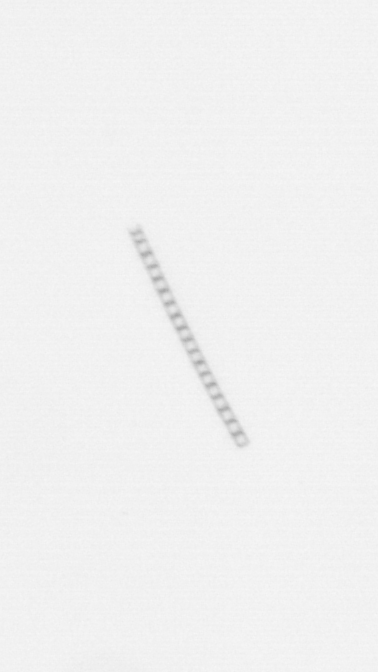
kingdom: Chromista
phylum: Ochrophyta
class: Bacillariophyceae
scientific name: Bacillariophyceae
